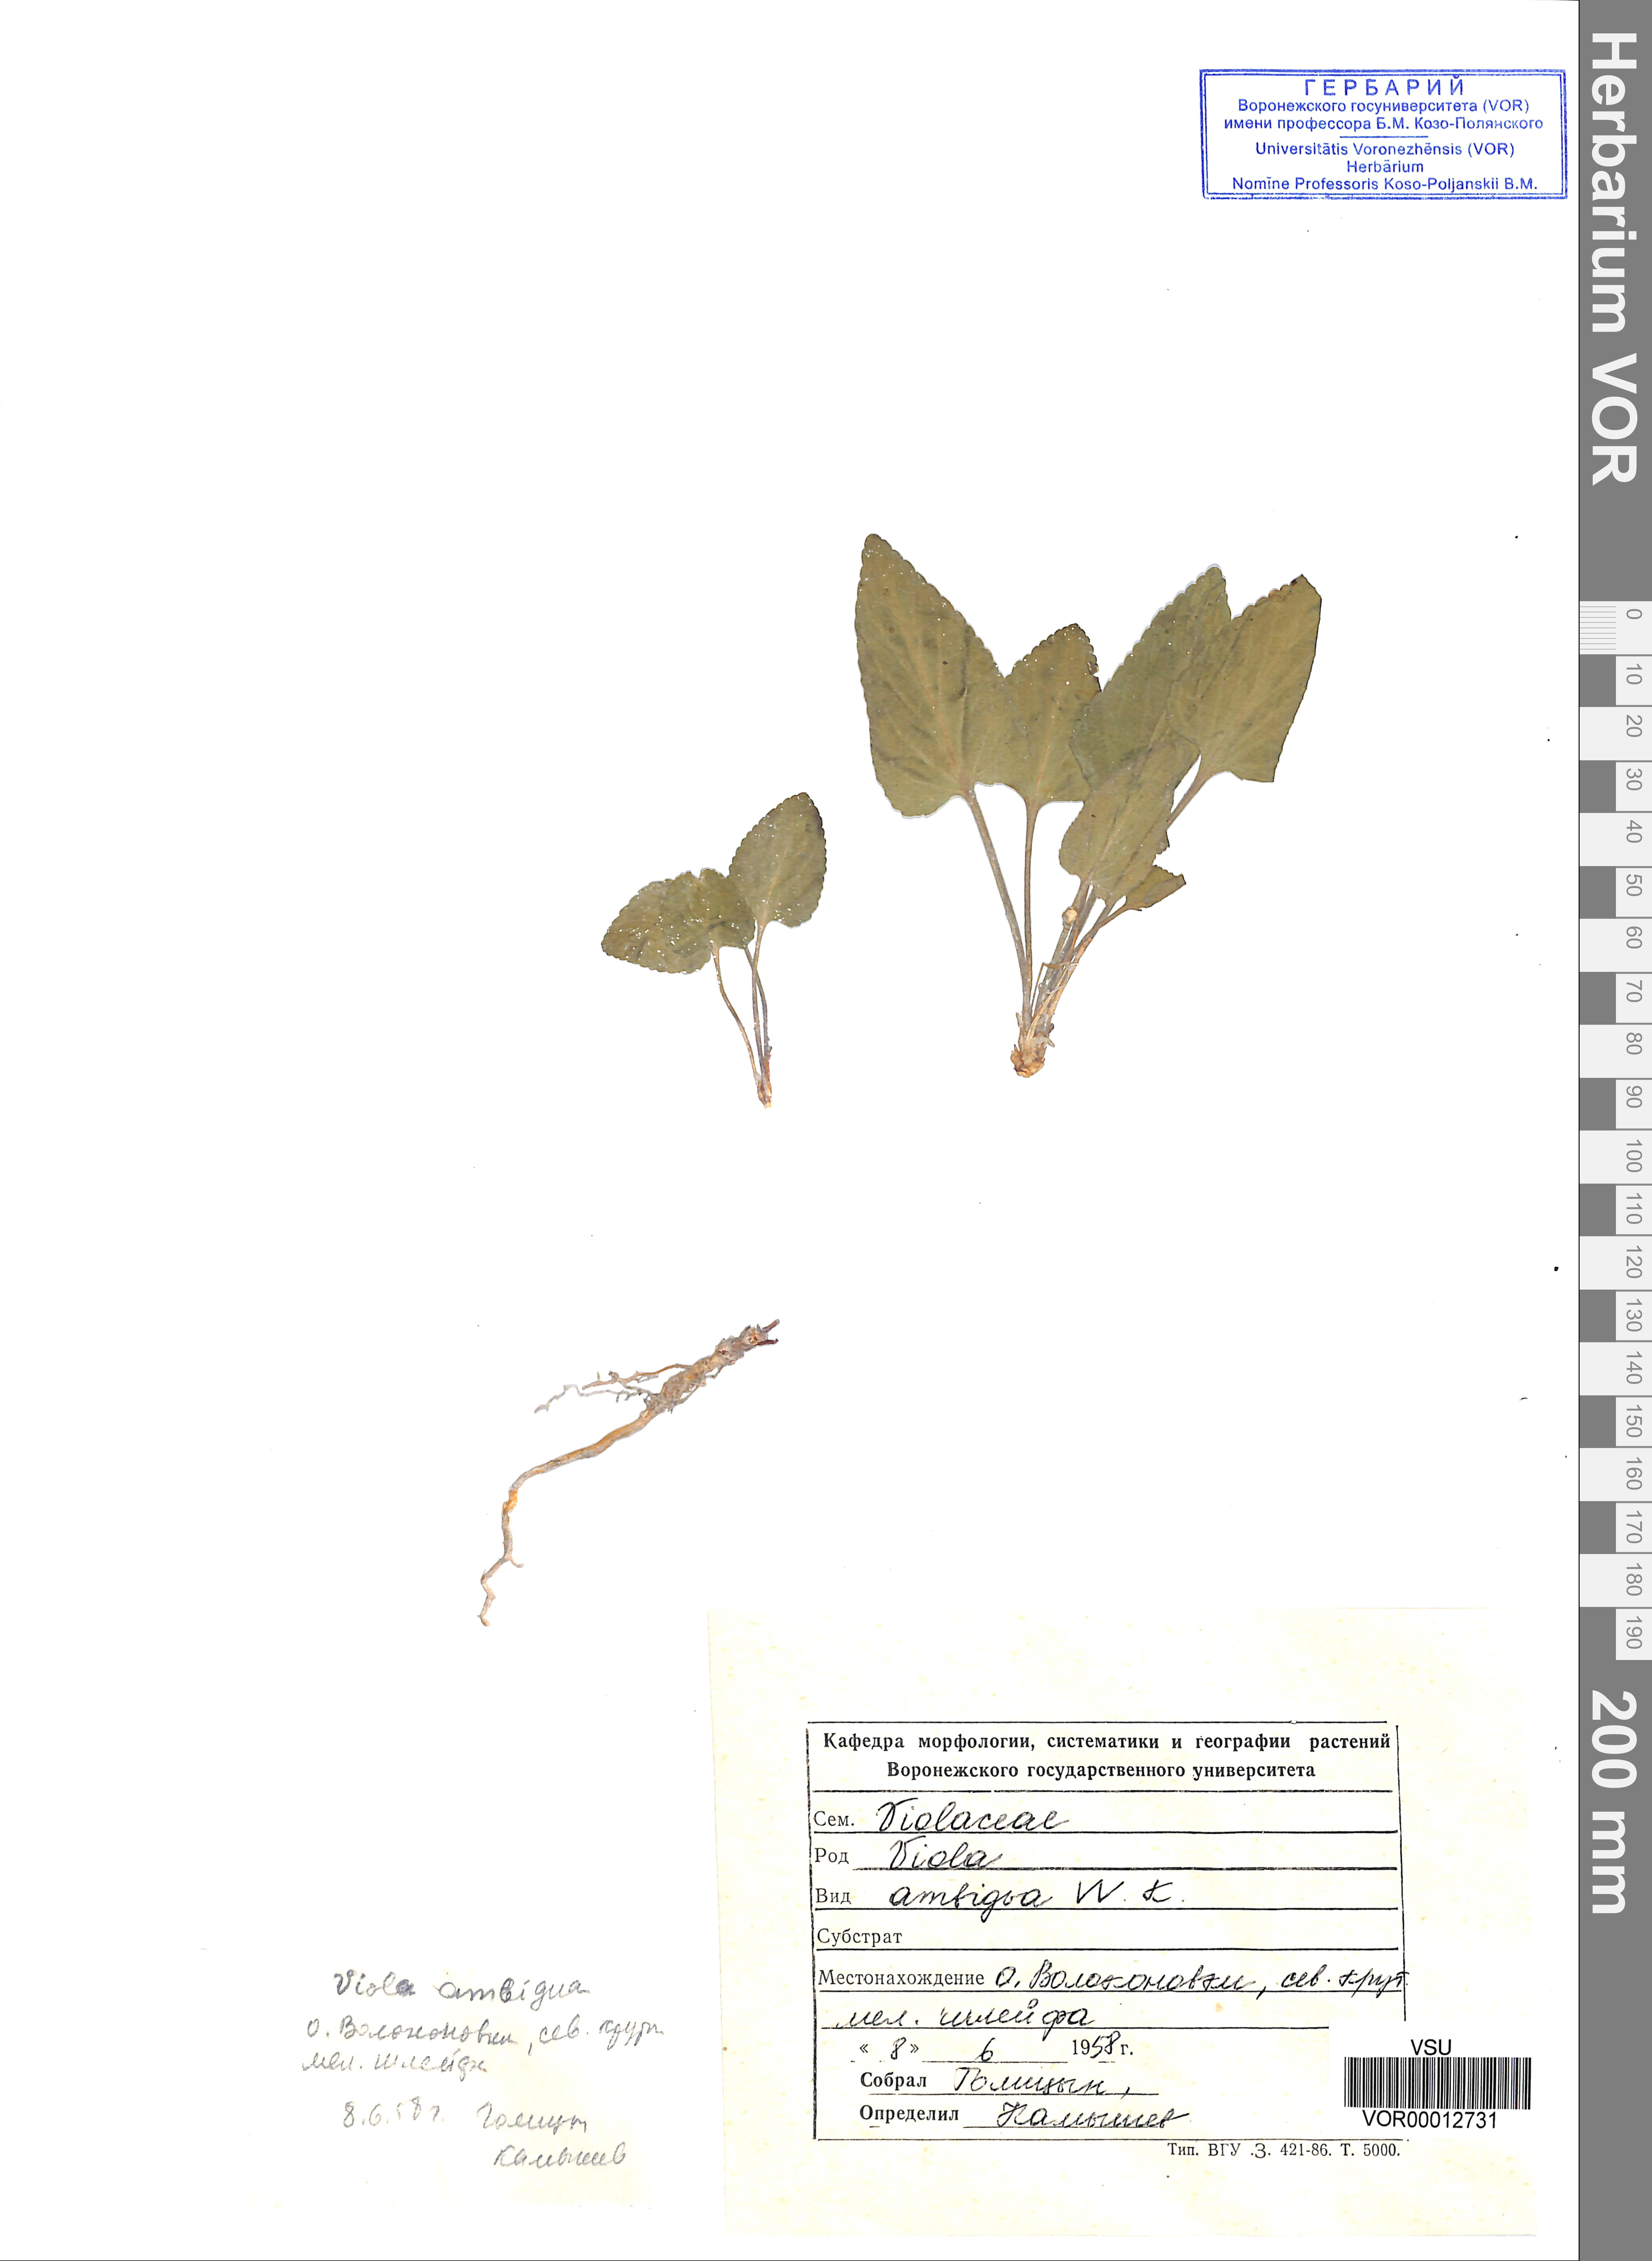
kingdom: Plantae
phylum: Tracheophyta
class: Magnoliopsida
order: Malpighiales
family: Violaceae
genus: Viola
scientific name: Viola ambigua
